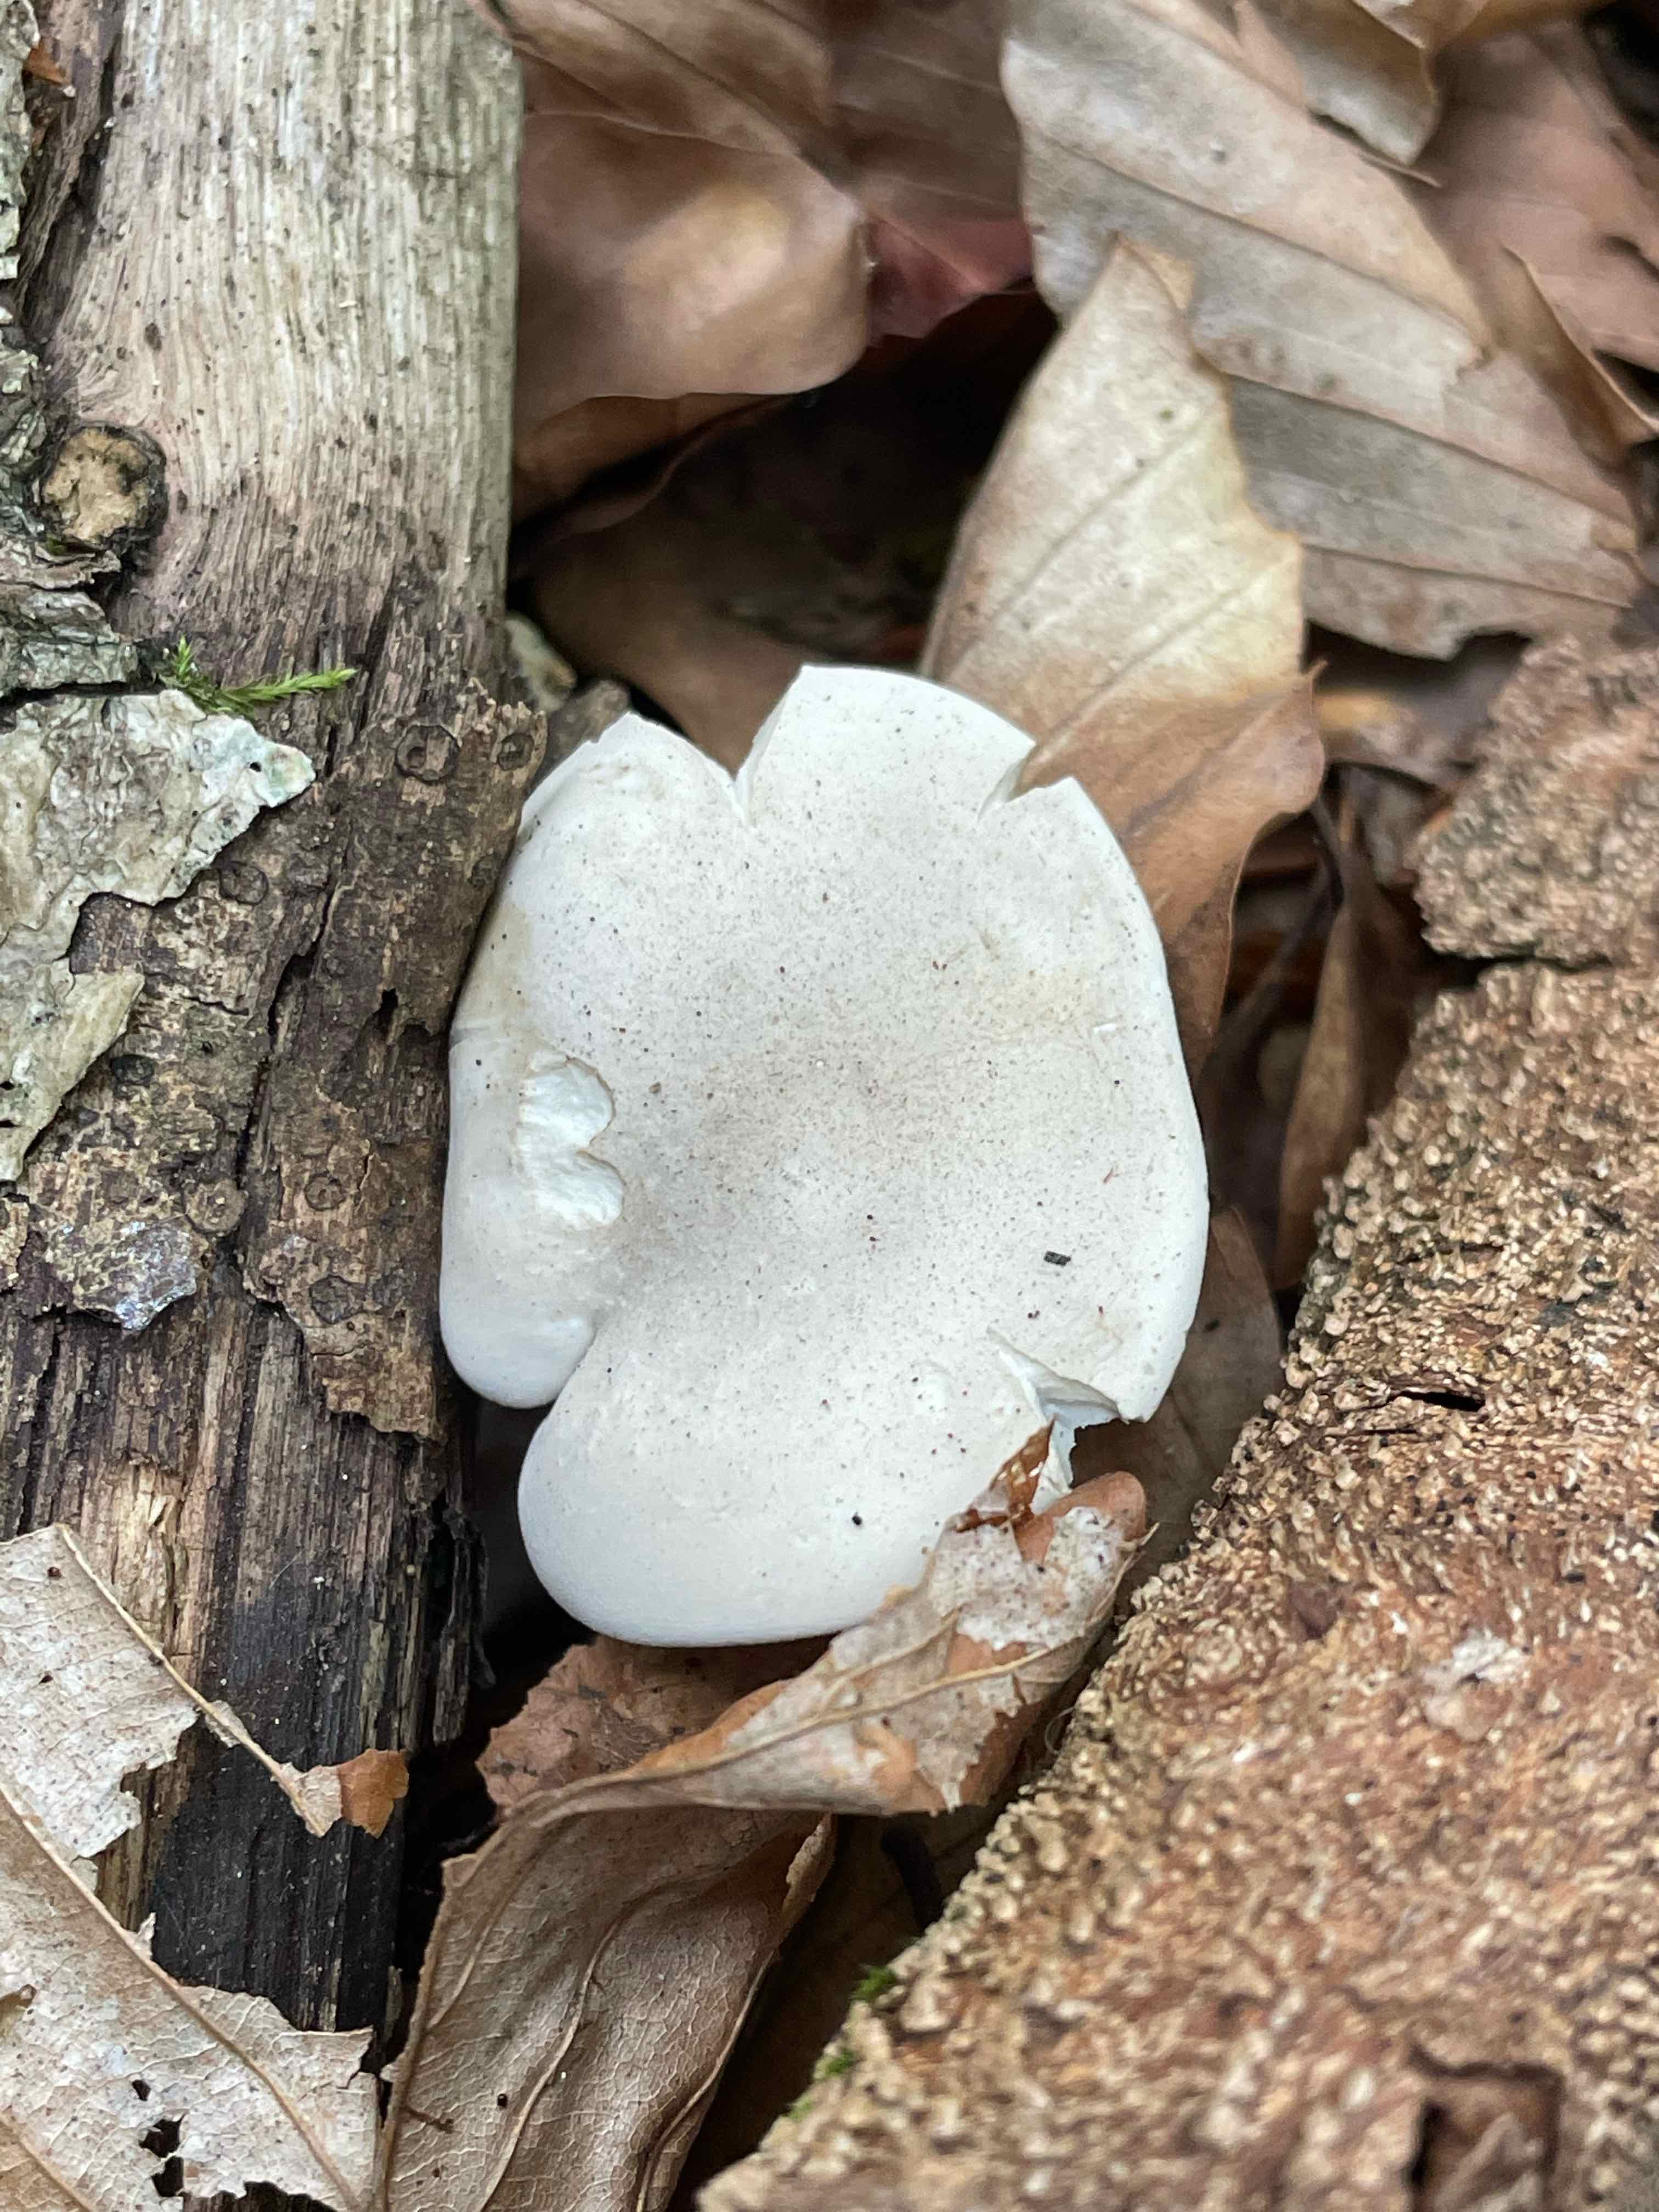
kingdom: Fungi
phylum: Basidiomycota
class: Agaricomycetes
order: Agaricales
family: Entolomataceae
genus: Clitopilus
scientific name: Clitopilus prunulus
